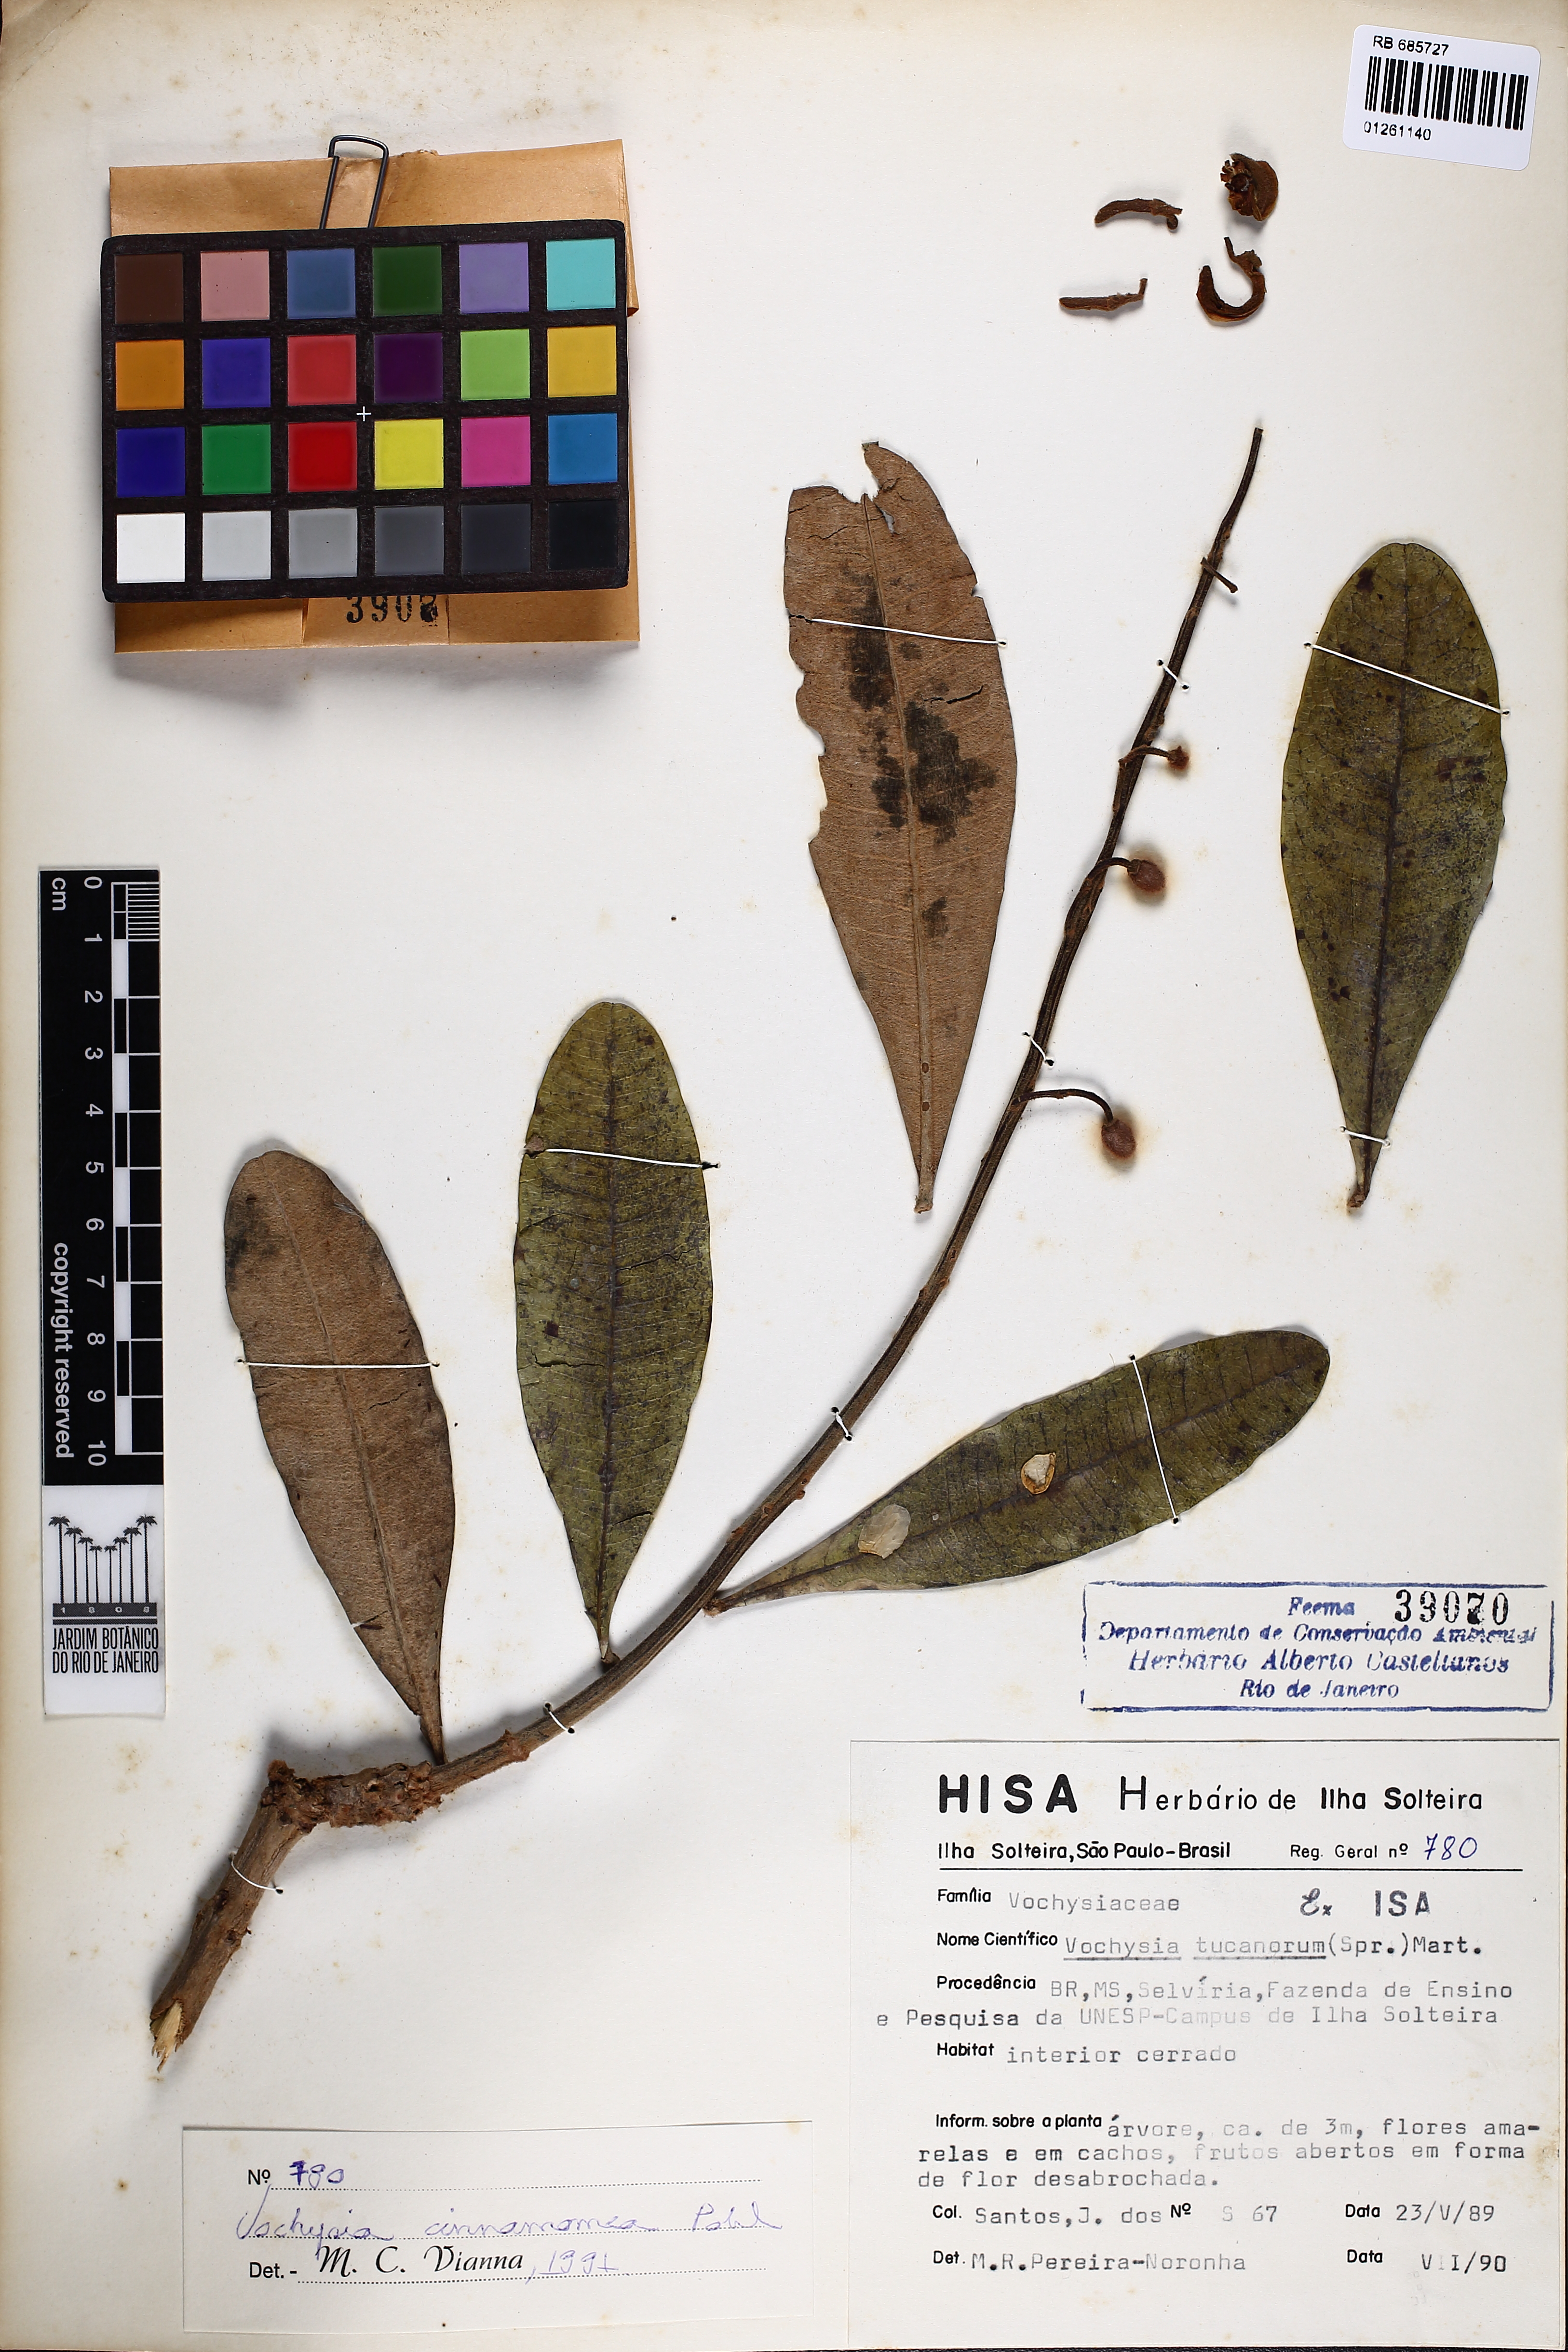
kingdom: Plantae
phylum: Tracheophyta
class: Magnoliopsida
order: Myrtales
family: Vochysiaceae
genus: Vochysia
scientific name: Vochysia cinnamomea
